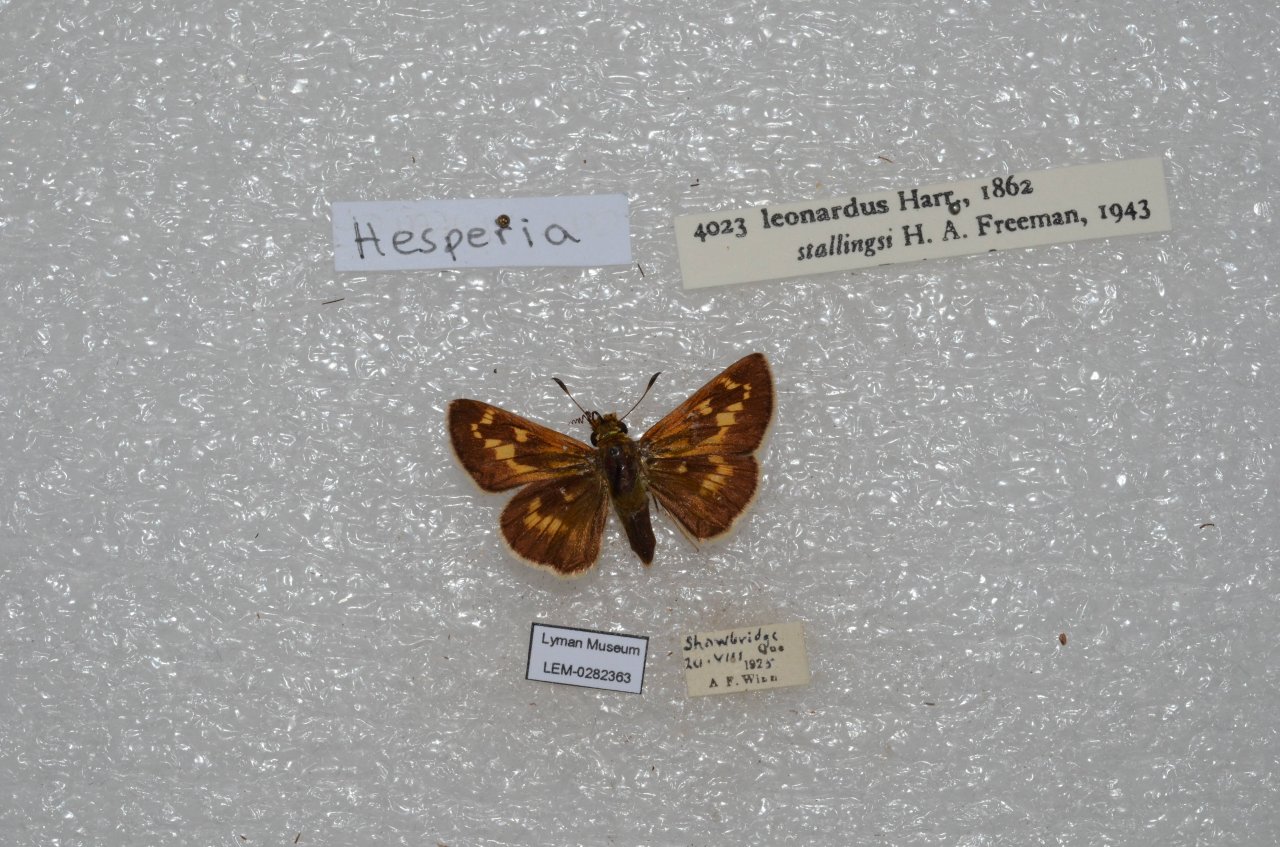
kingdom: Animalia
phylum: Arthropoda
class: Insecta
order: Lepidoptera
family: Hesperiidae
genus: Hesperia
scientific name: Hesperia leonardus
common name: Leonard's Skipper
